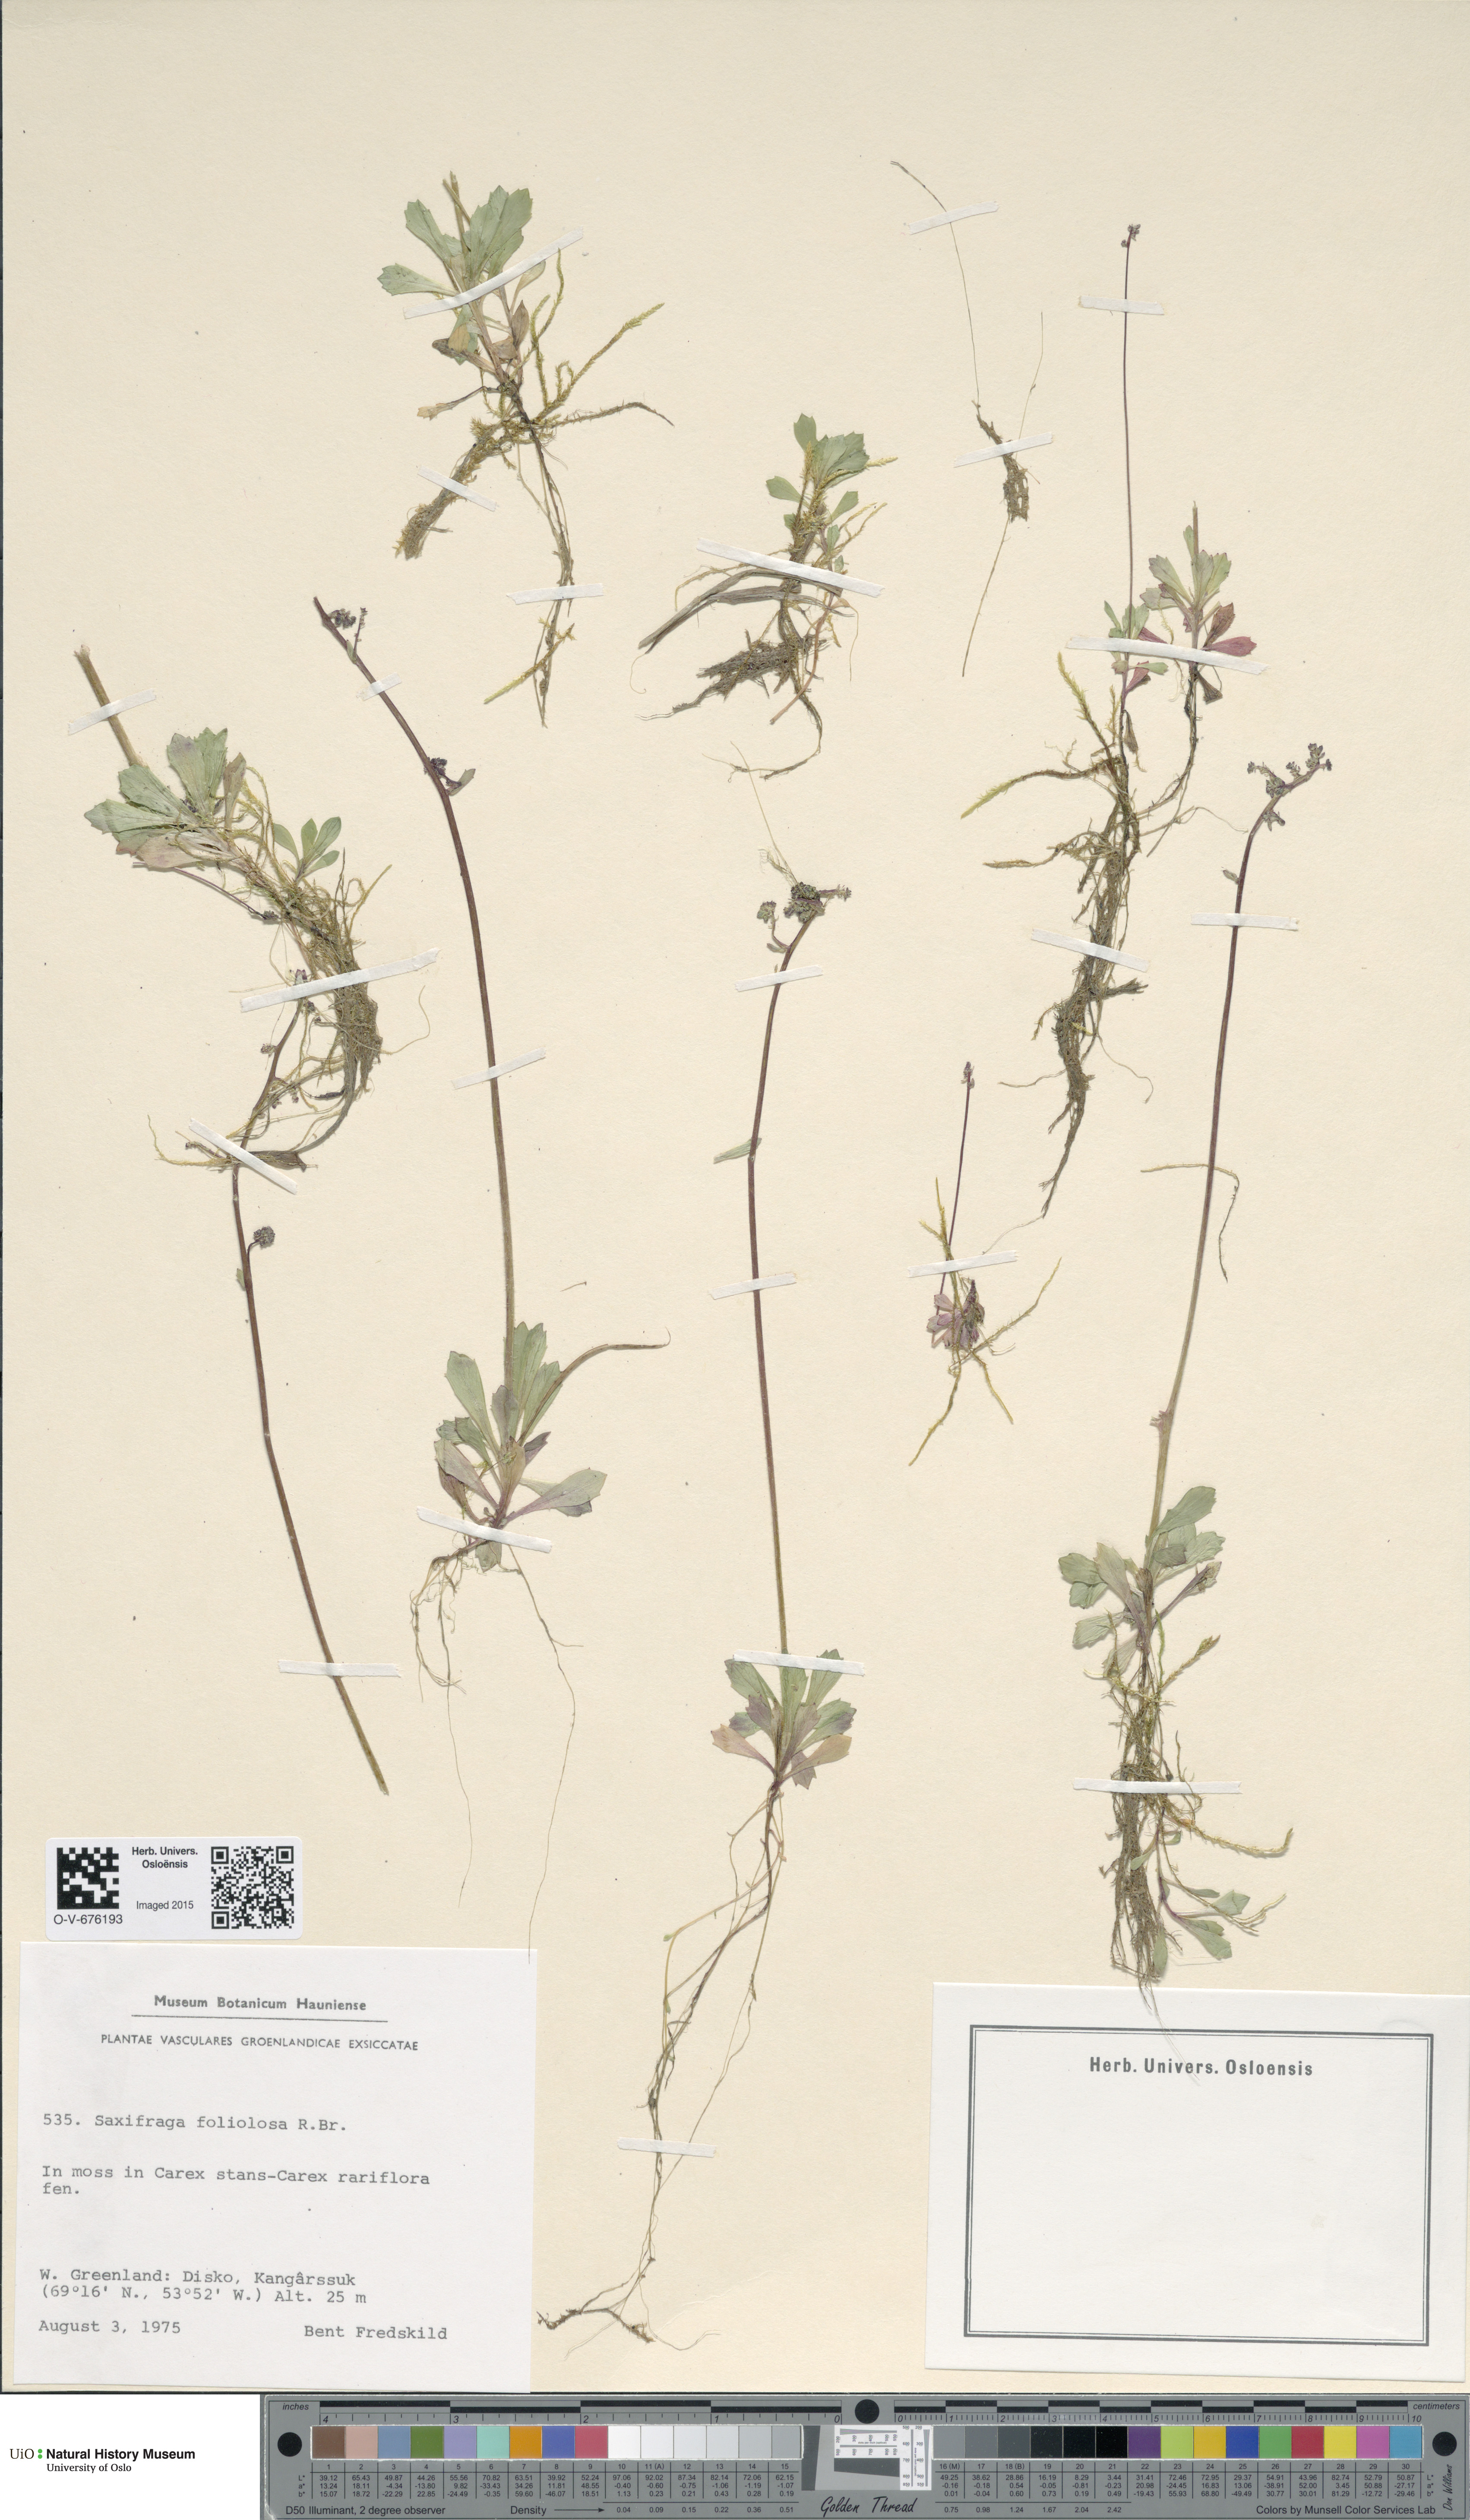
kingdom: Plantae
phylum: Tracheophyta
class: Magnoliopsida
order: Saxifragales
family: Saxifragaceae
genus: Micranthes
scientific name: Micranthes foliolosa
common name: Leafystem saxifrage
